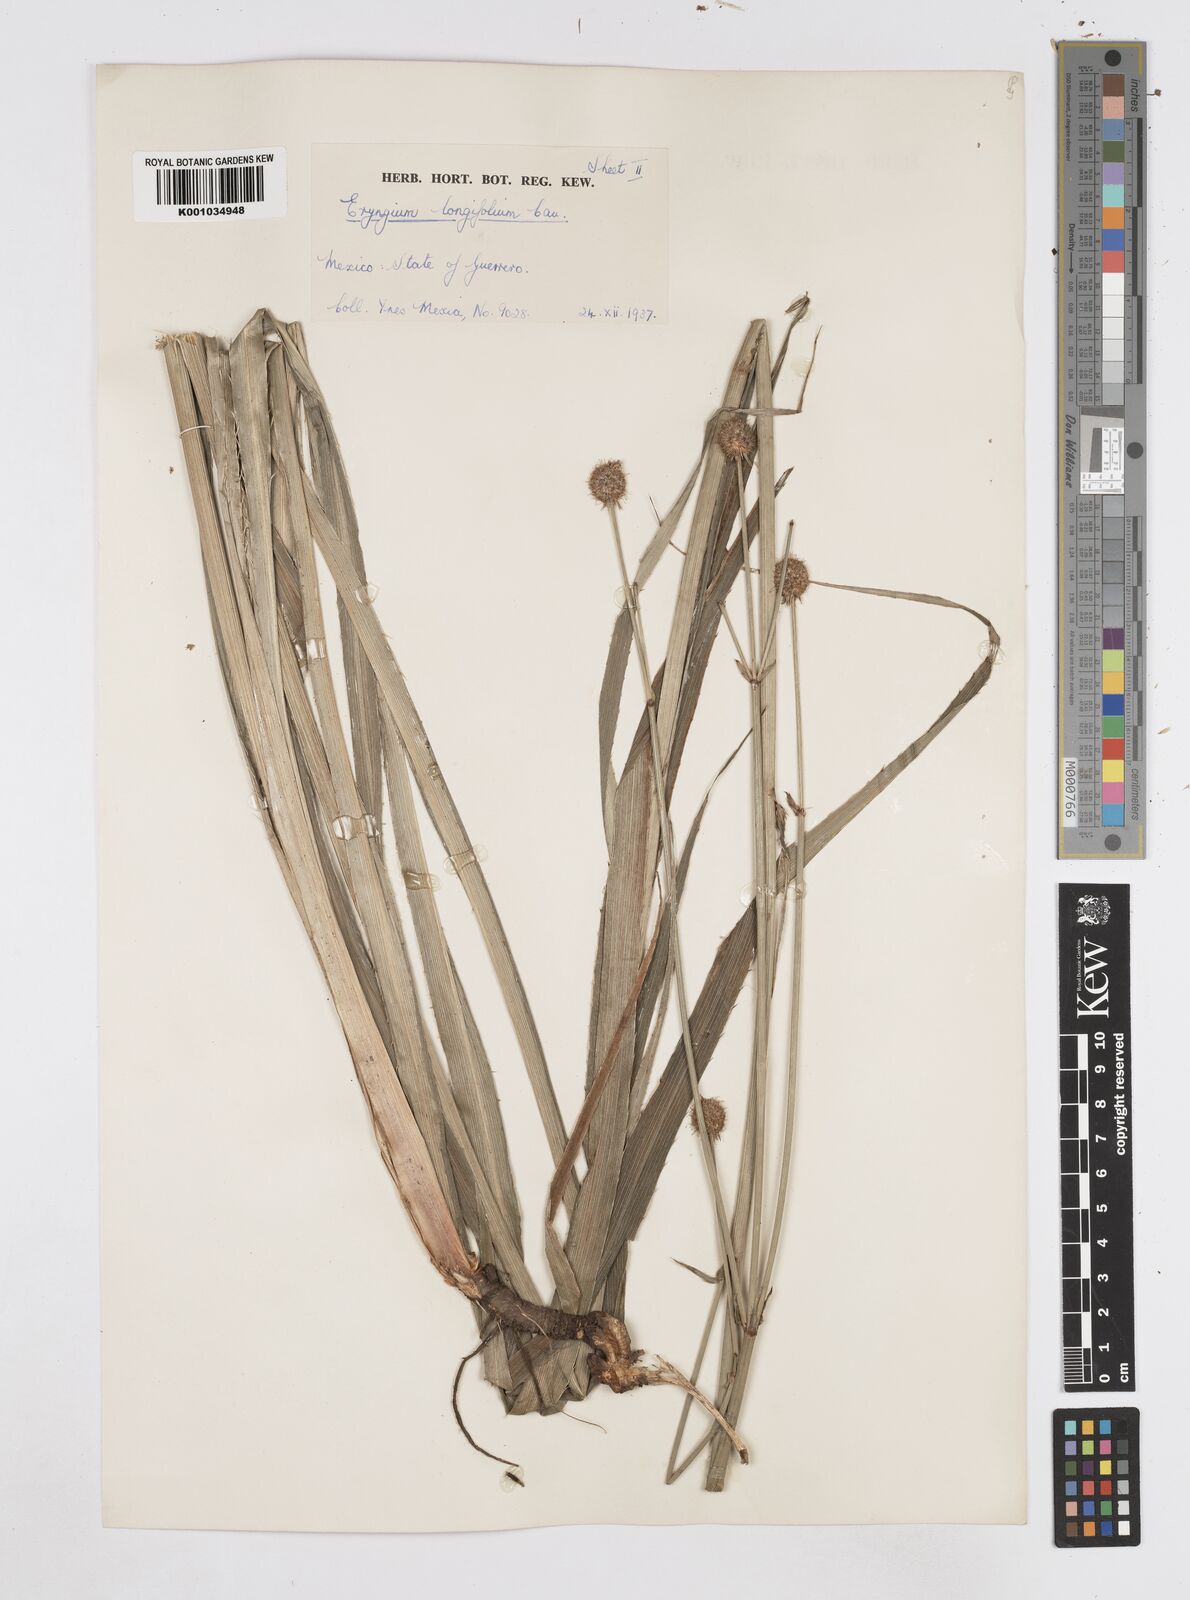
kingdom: Plantae
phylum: Tracheophyta
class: Magnoliopsida
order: Apiales
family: Apiaceae
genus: Eryngium
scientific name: Eryngium longifolium
